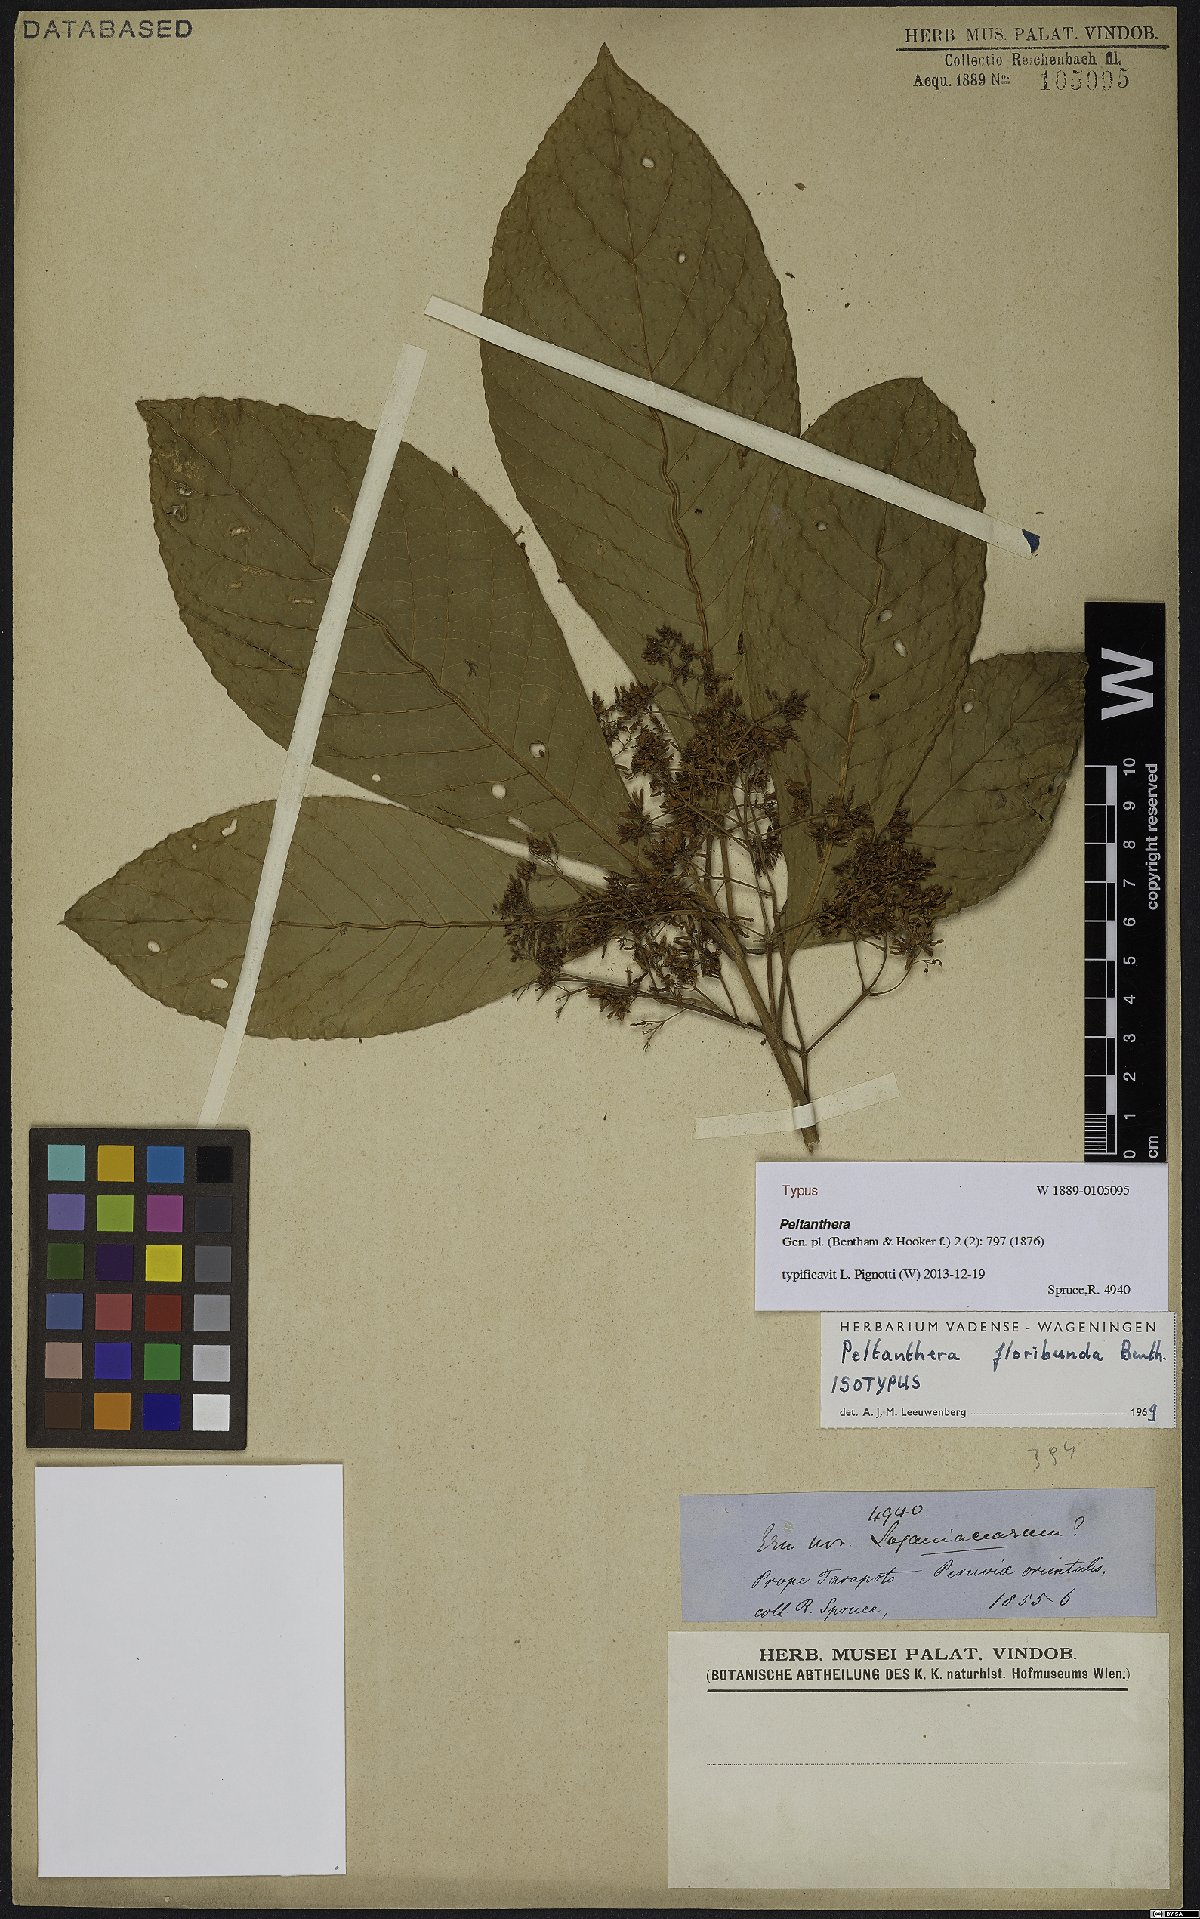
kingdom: Plantae
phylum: Tracheophyta
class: Magnoliopsida
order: Lamiales
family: Peltantheraceae
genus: Peltanthera
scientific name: Peltanthera floribunda
